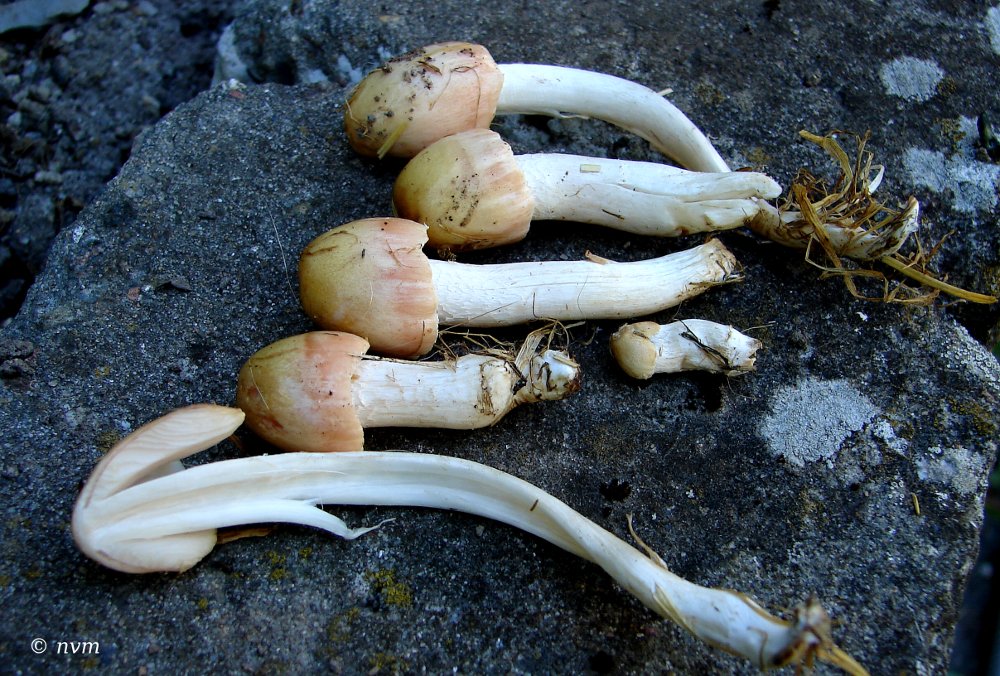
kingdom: Fungi
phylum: Basidiomycota
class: Agaricomycetes
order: Agaricales
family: Bolbitiaceae
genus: Bolbitius
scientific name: Bolbitius coprophilus
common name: rosa gulhat
